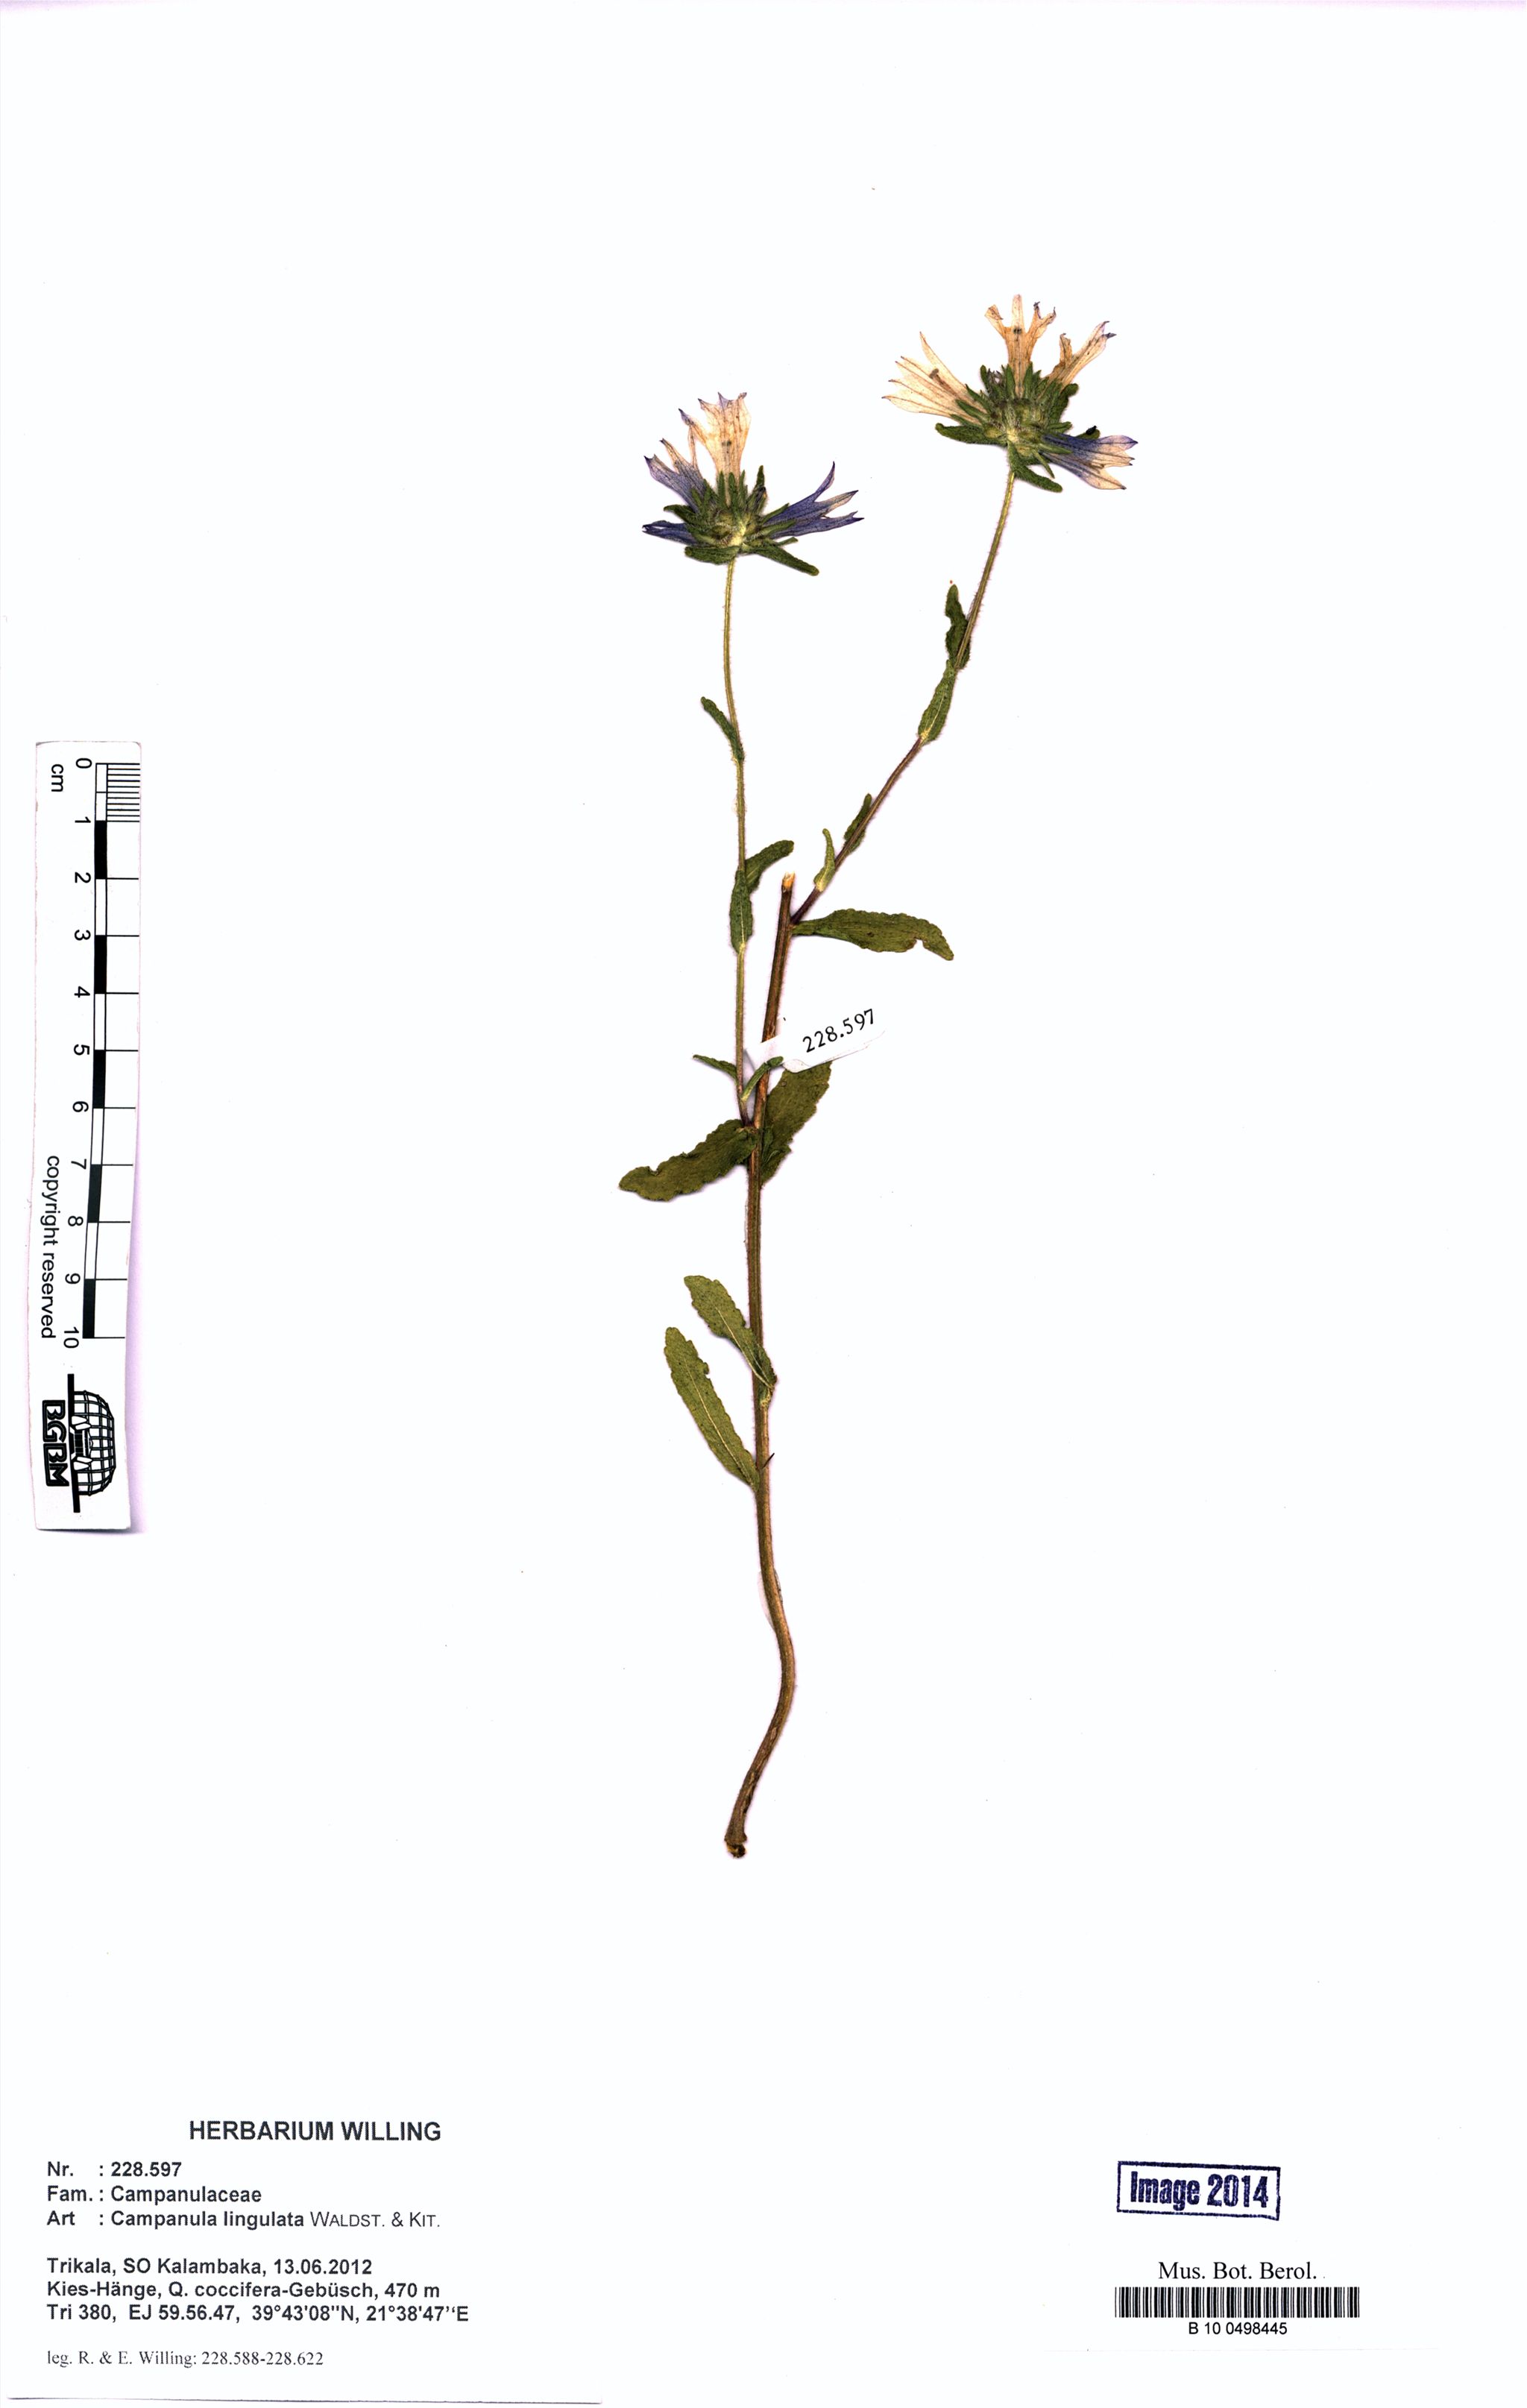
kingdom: Plantae
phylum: Tracheophyta
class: Magnoliopsida
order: Asterales
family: Campanulaceae
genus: Campanula
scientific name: Campanula lingulata
